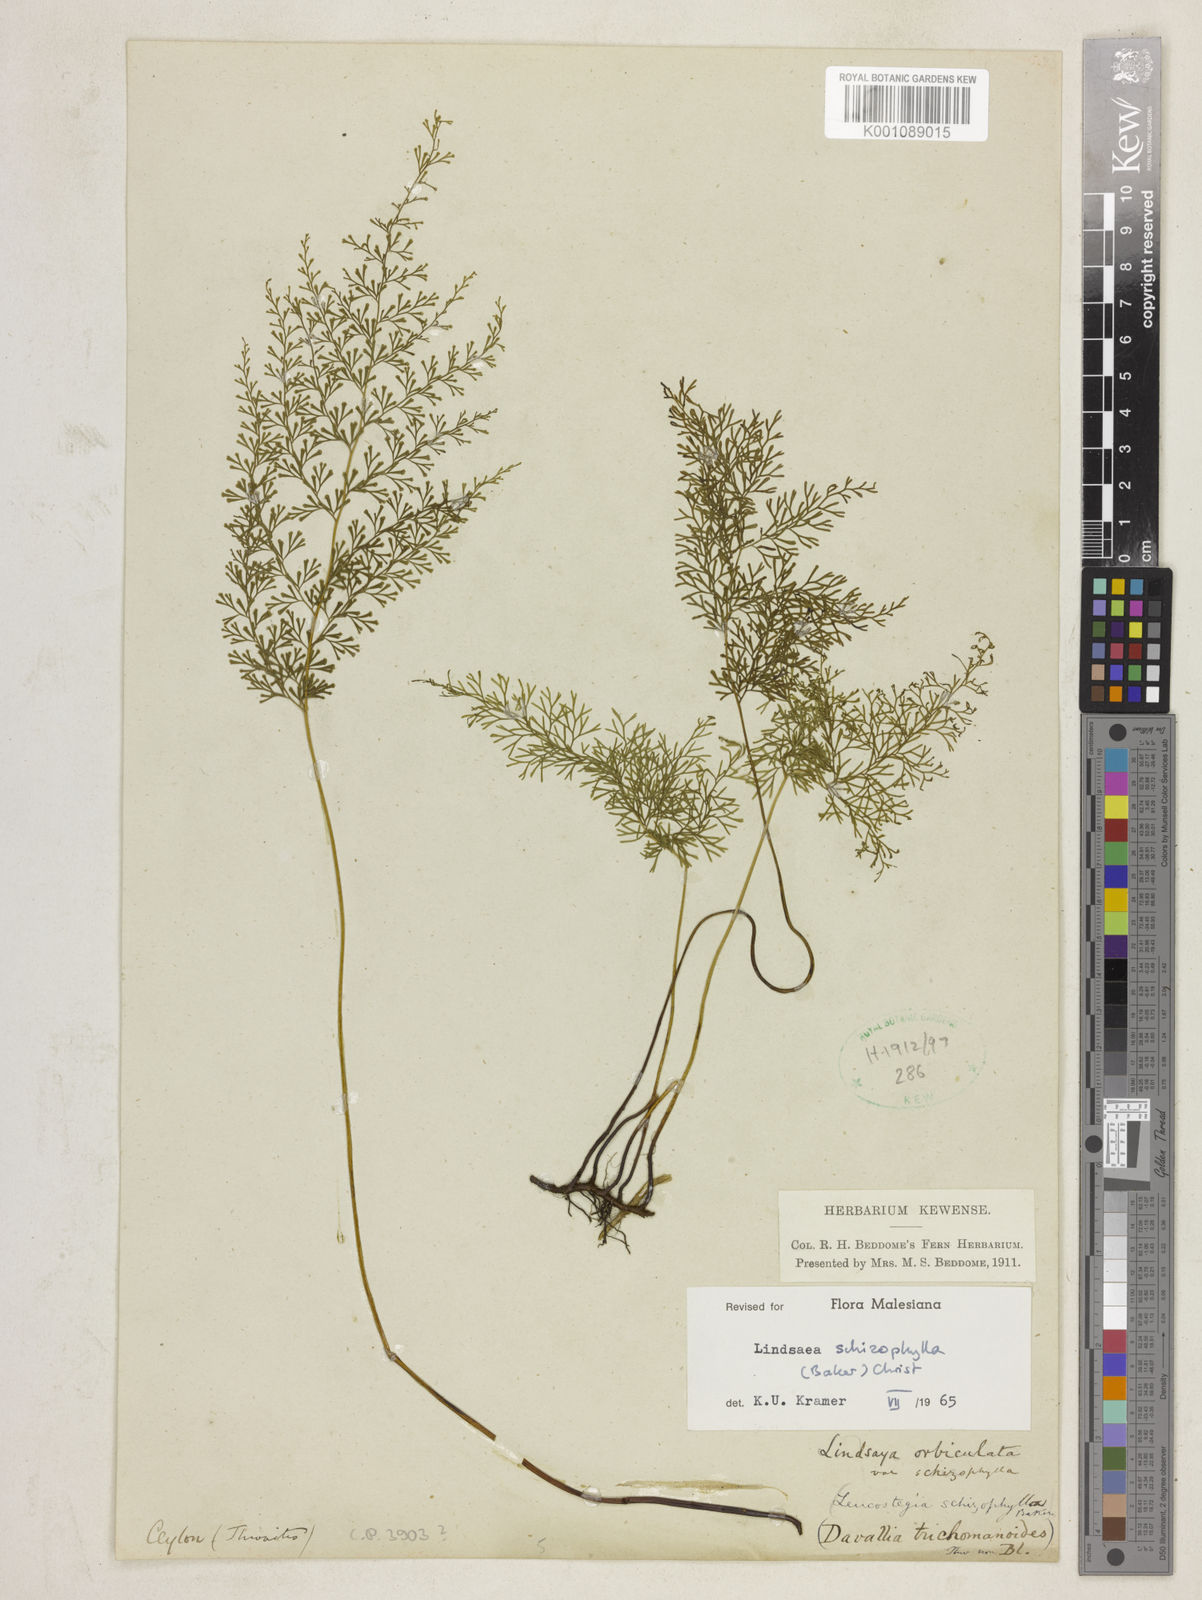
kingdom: Plantae
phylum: Tracheophyta
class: Polypodiopsida
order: Polypodiales
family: Lindsaeaceae
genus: Lindsaea
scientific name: Lindsaea schizophylla
